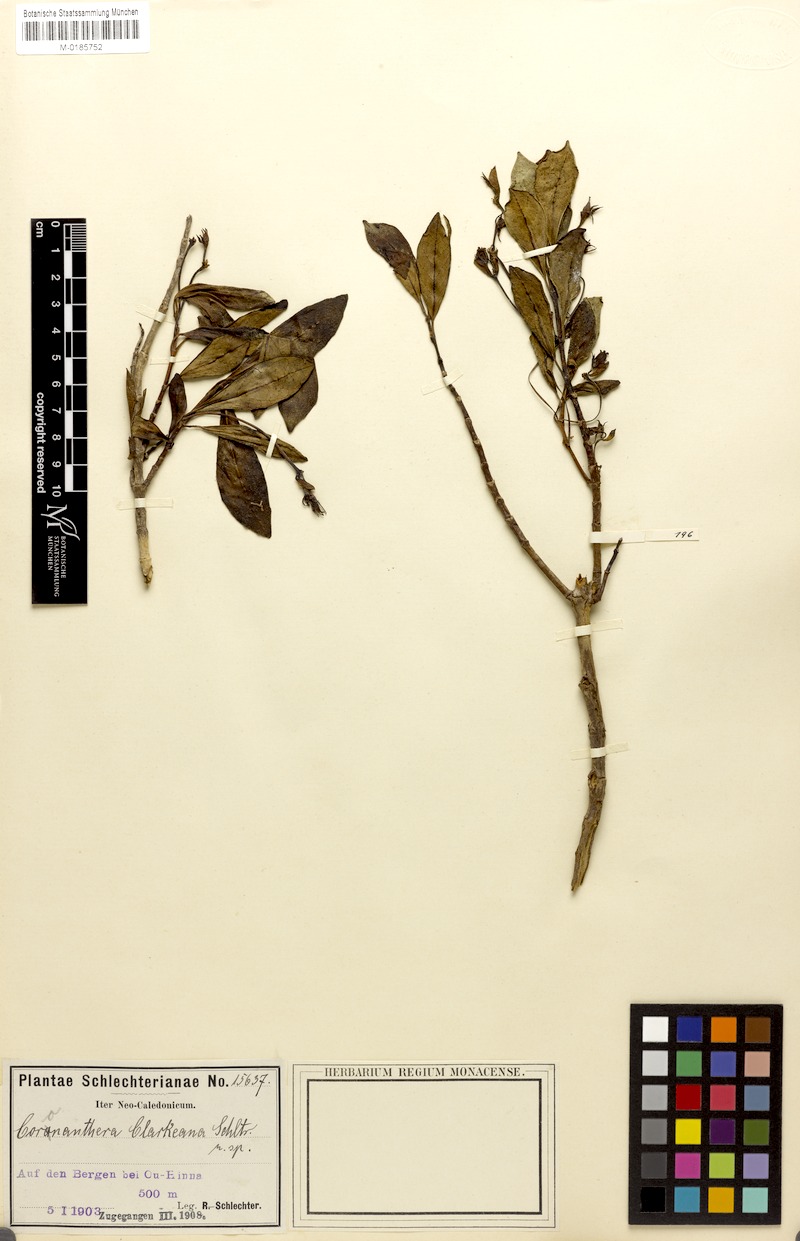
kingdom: Plantae
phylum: Tracheophyta
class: Magnoliopsida
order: Lamiales
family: Gesneriaceae
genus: Coronanthera
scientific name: Coronanthera clarkeana
